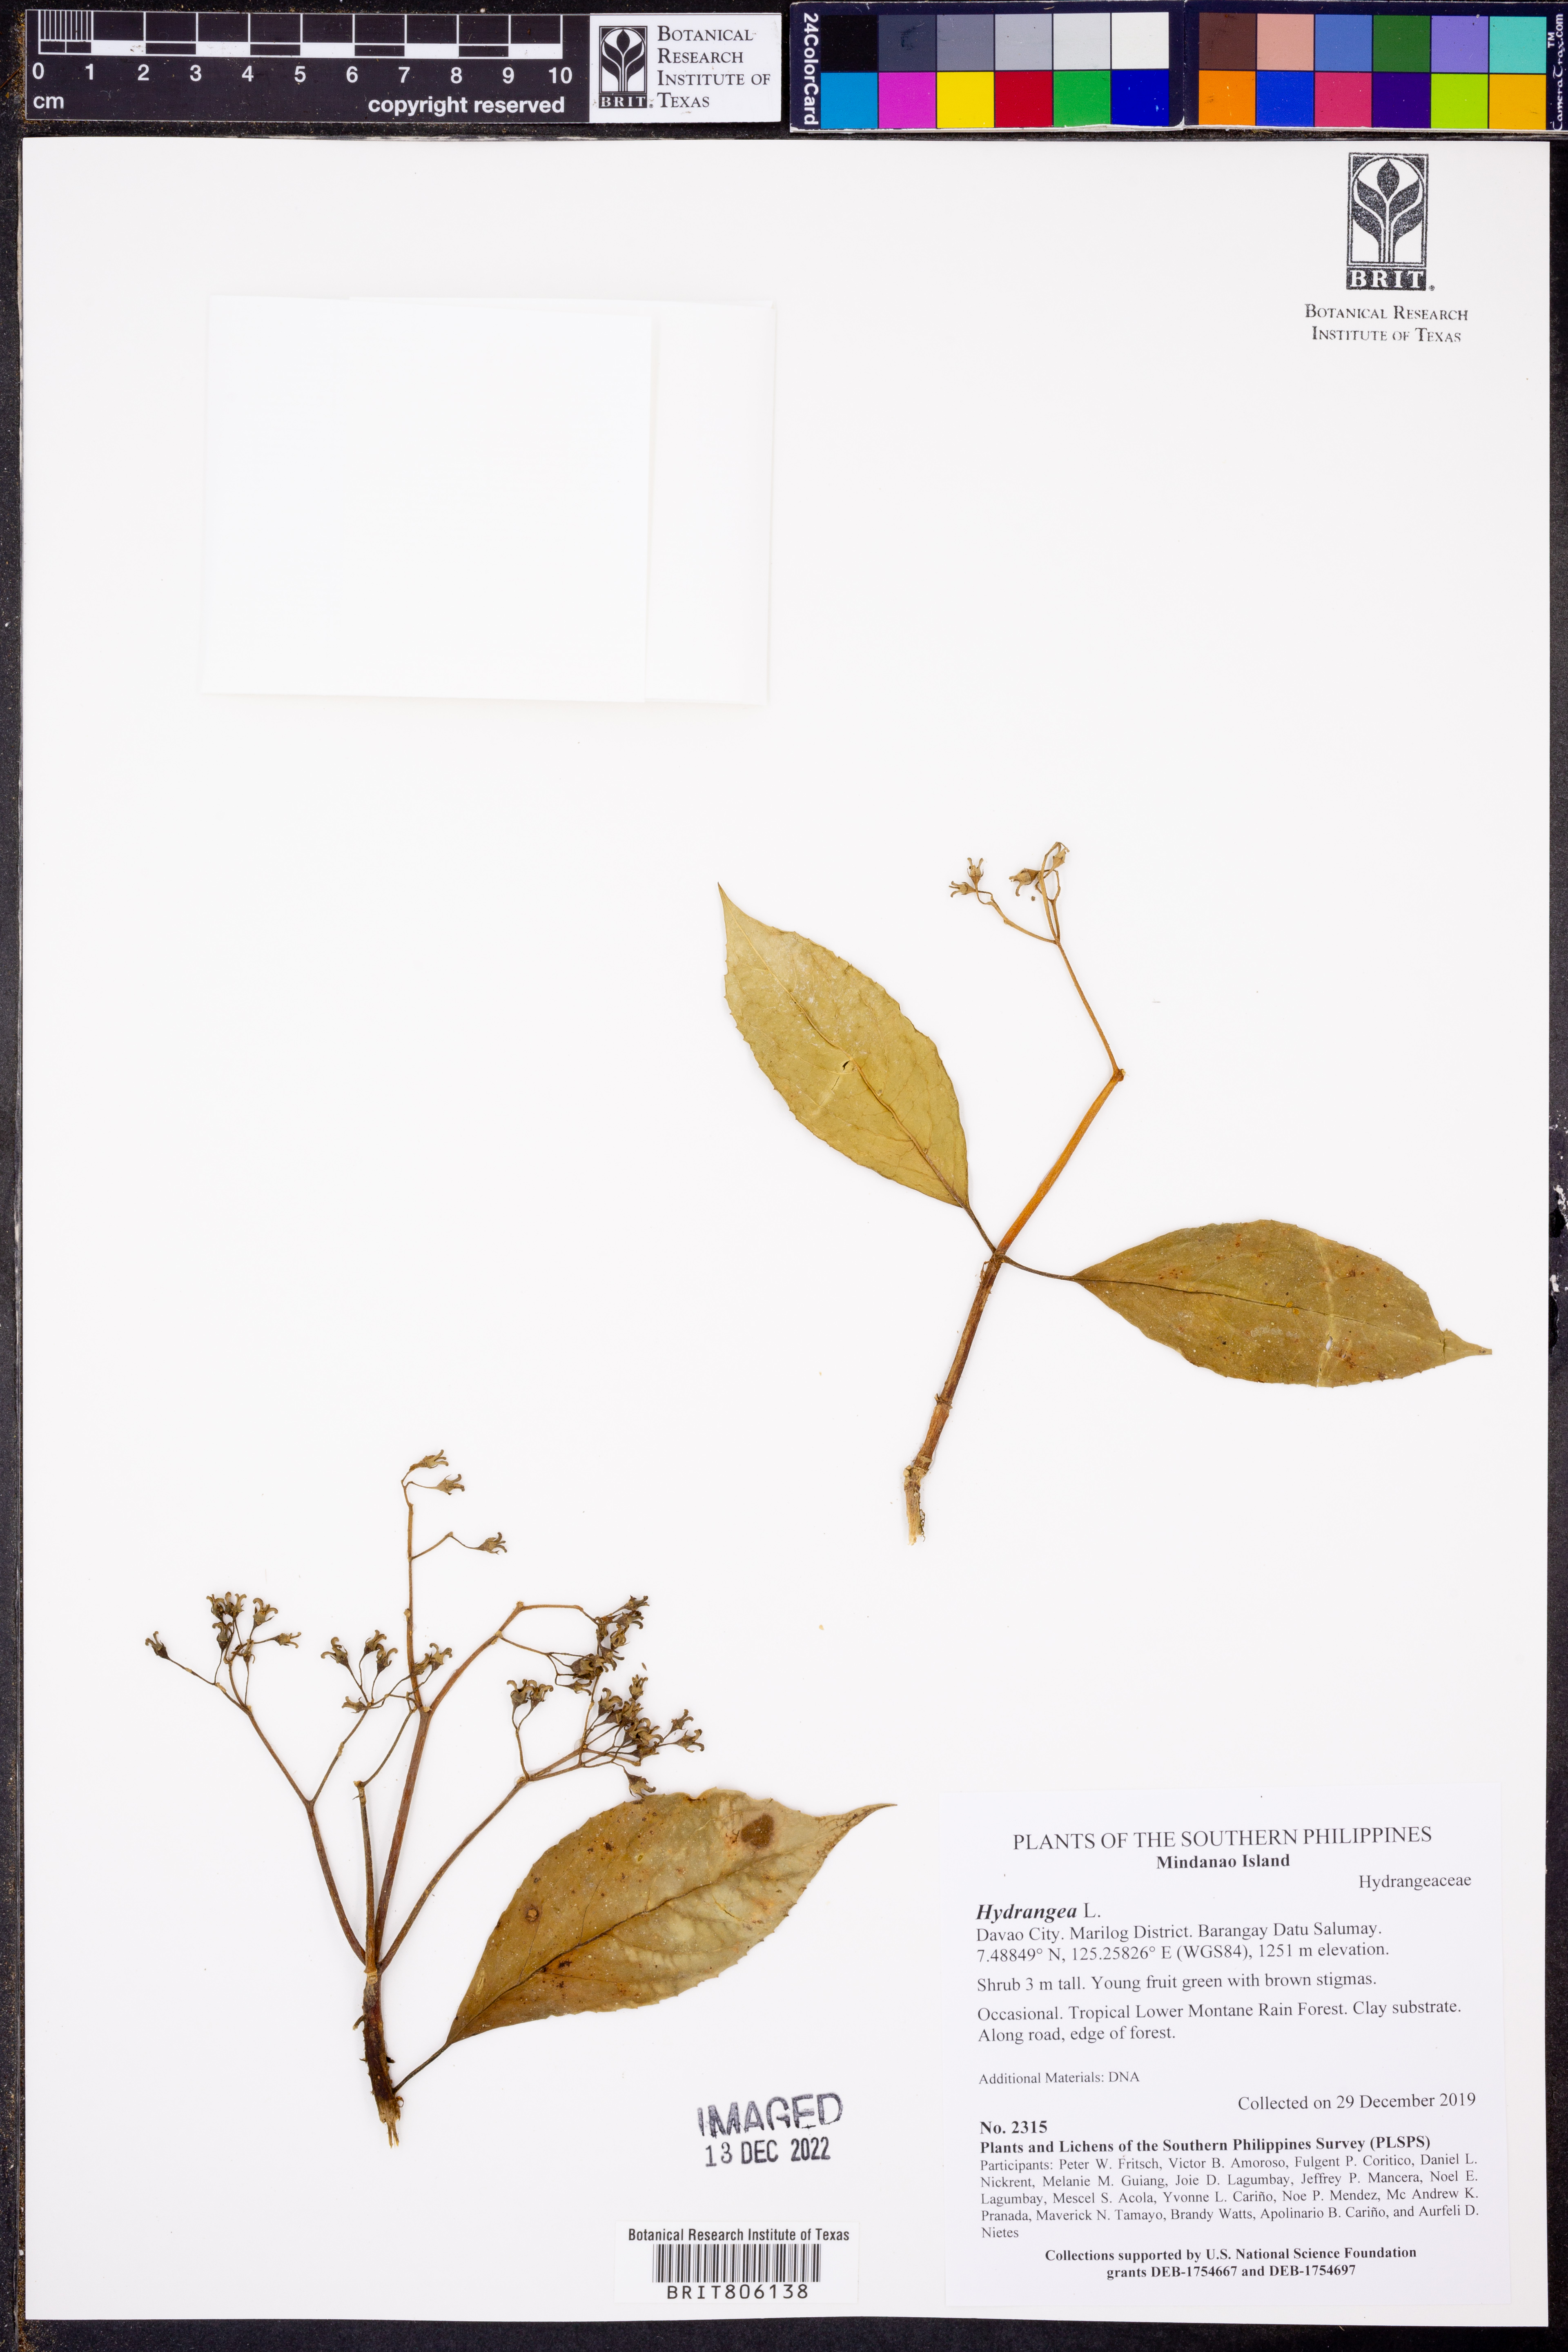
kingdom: Plantae
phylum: Tracheophyta
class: Magnoliopsida
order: Cornales
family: Hydrangeaceae
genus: Hydrangea
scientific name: Hydrangea
